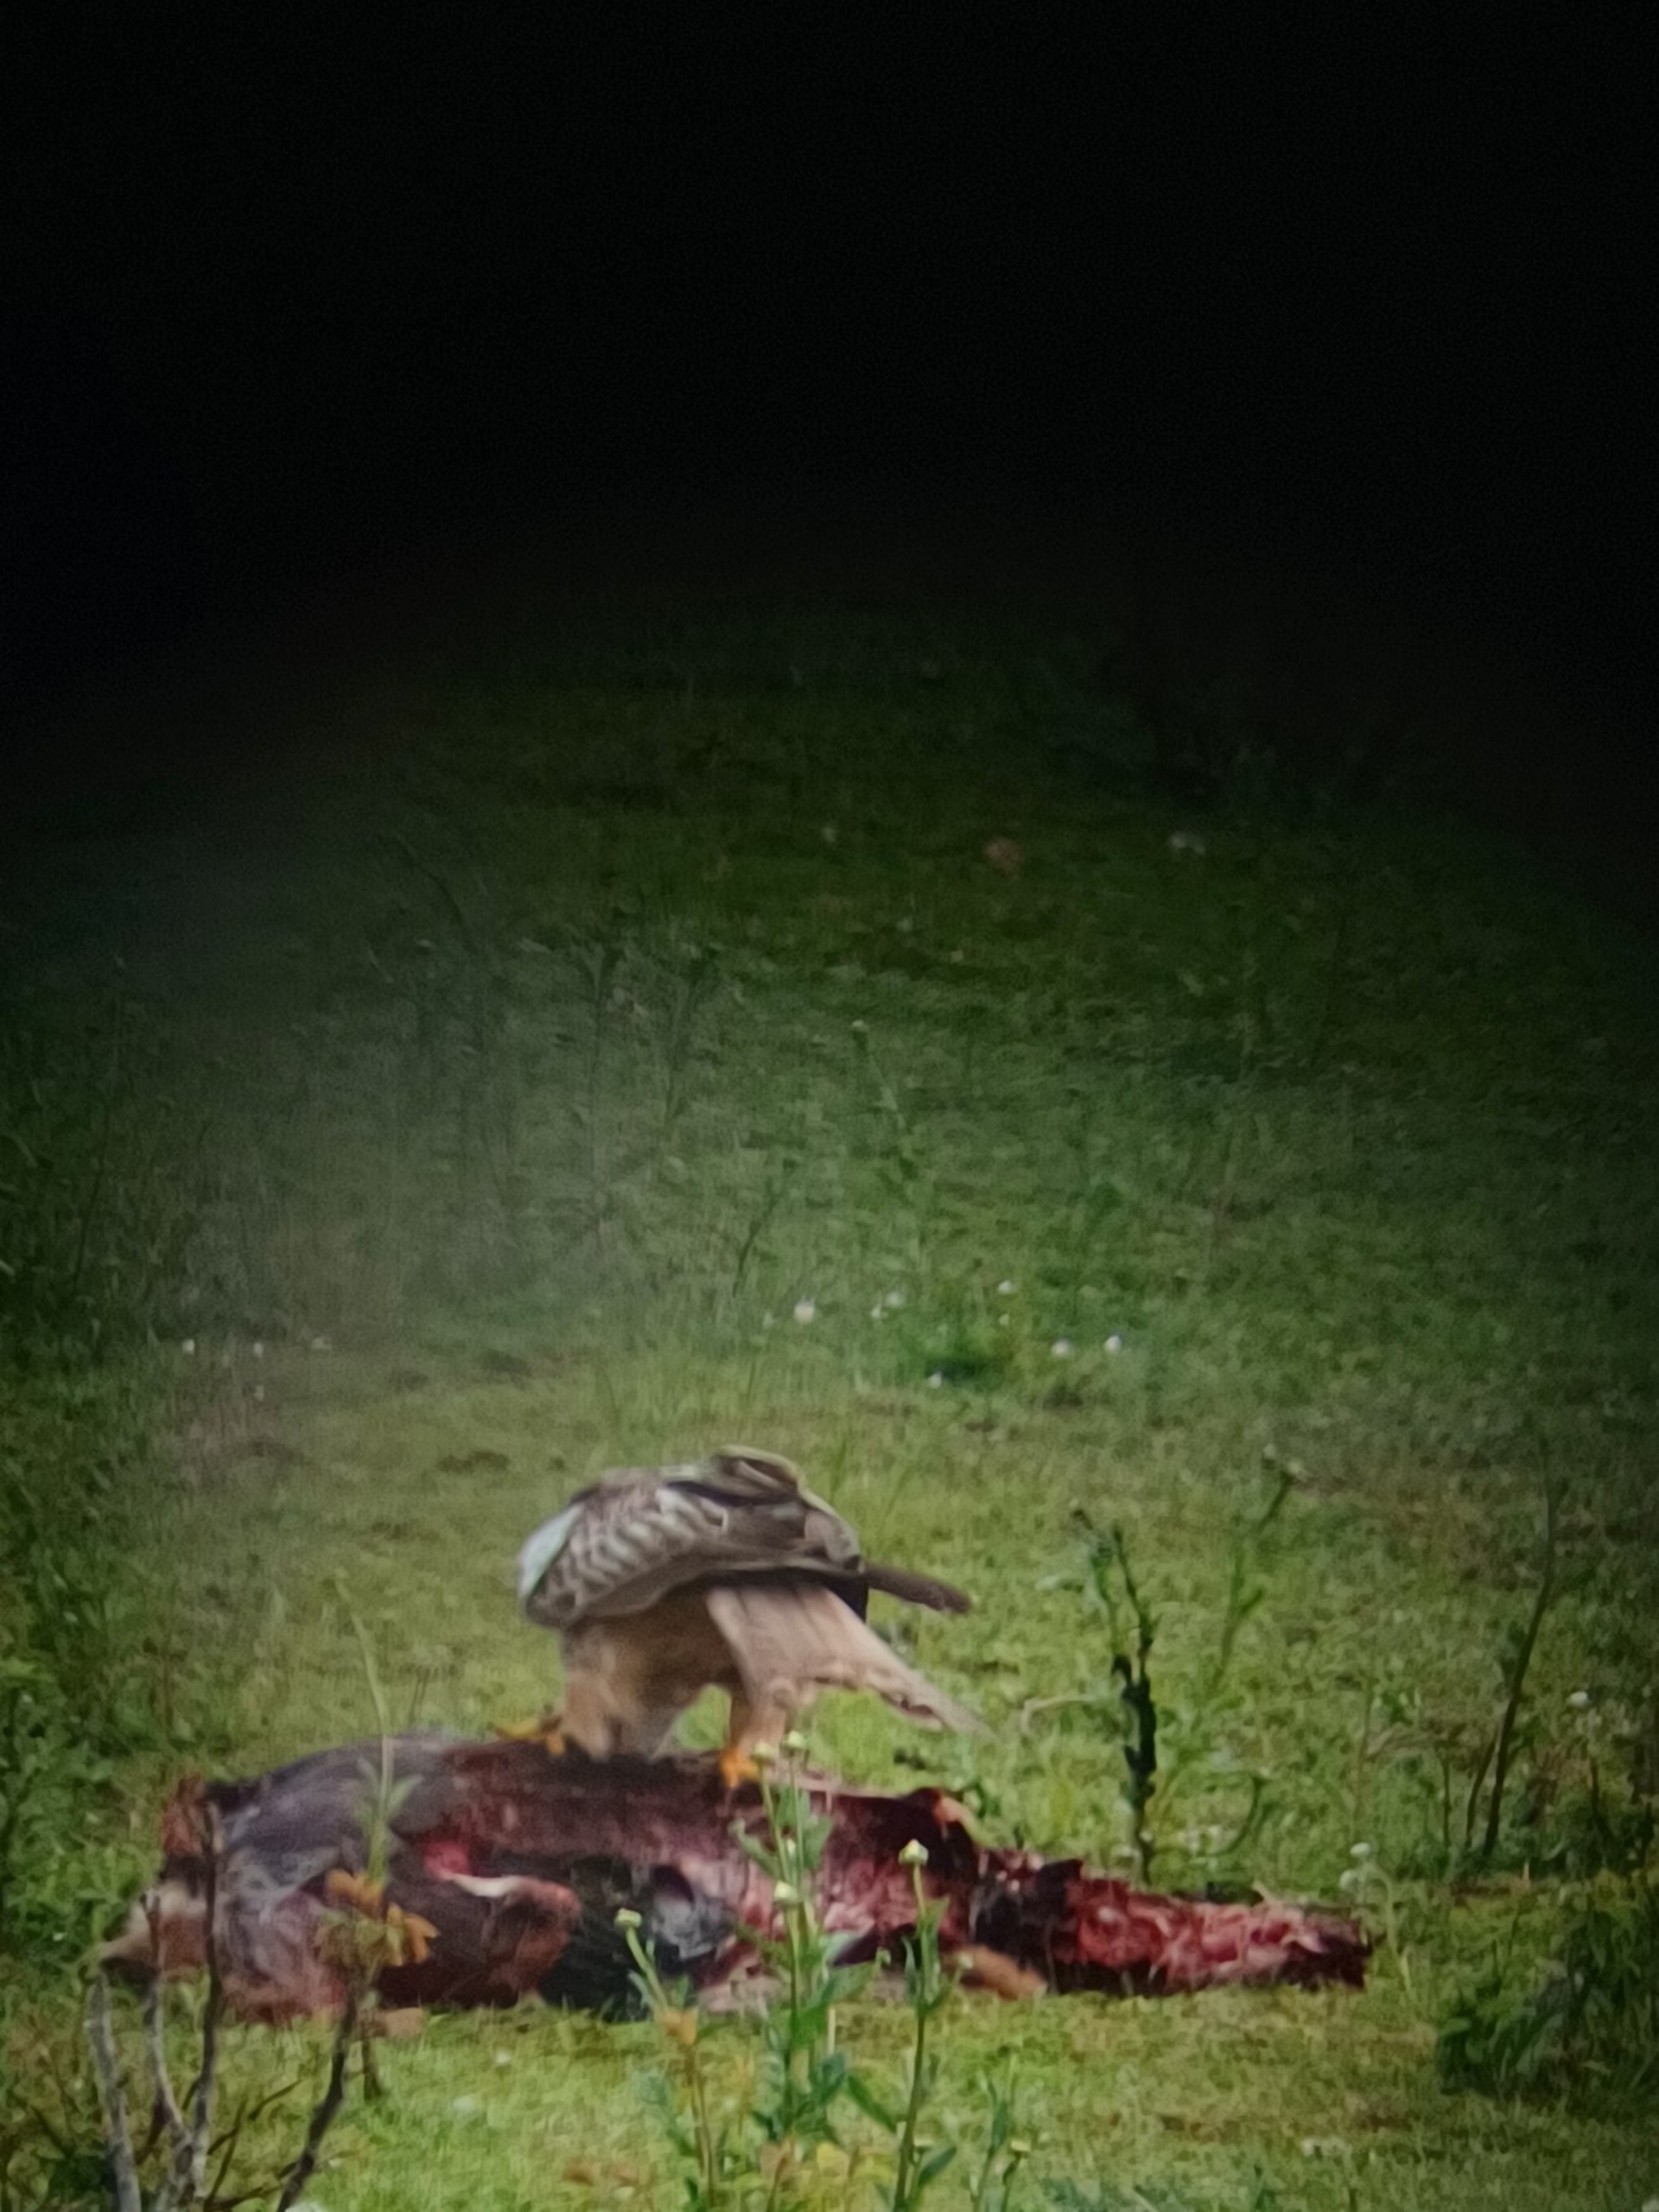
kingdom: Animalia
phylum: Chordata
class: Aves
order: Accipitriformes
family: Accipitridae
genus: Milvus
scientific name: Milvus milvus
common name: Rød glente
